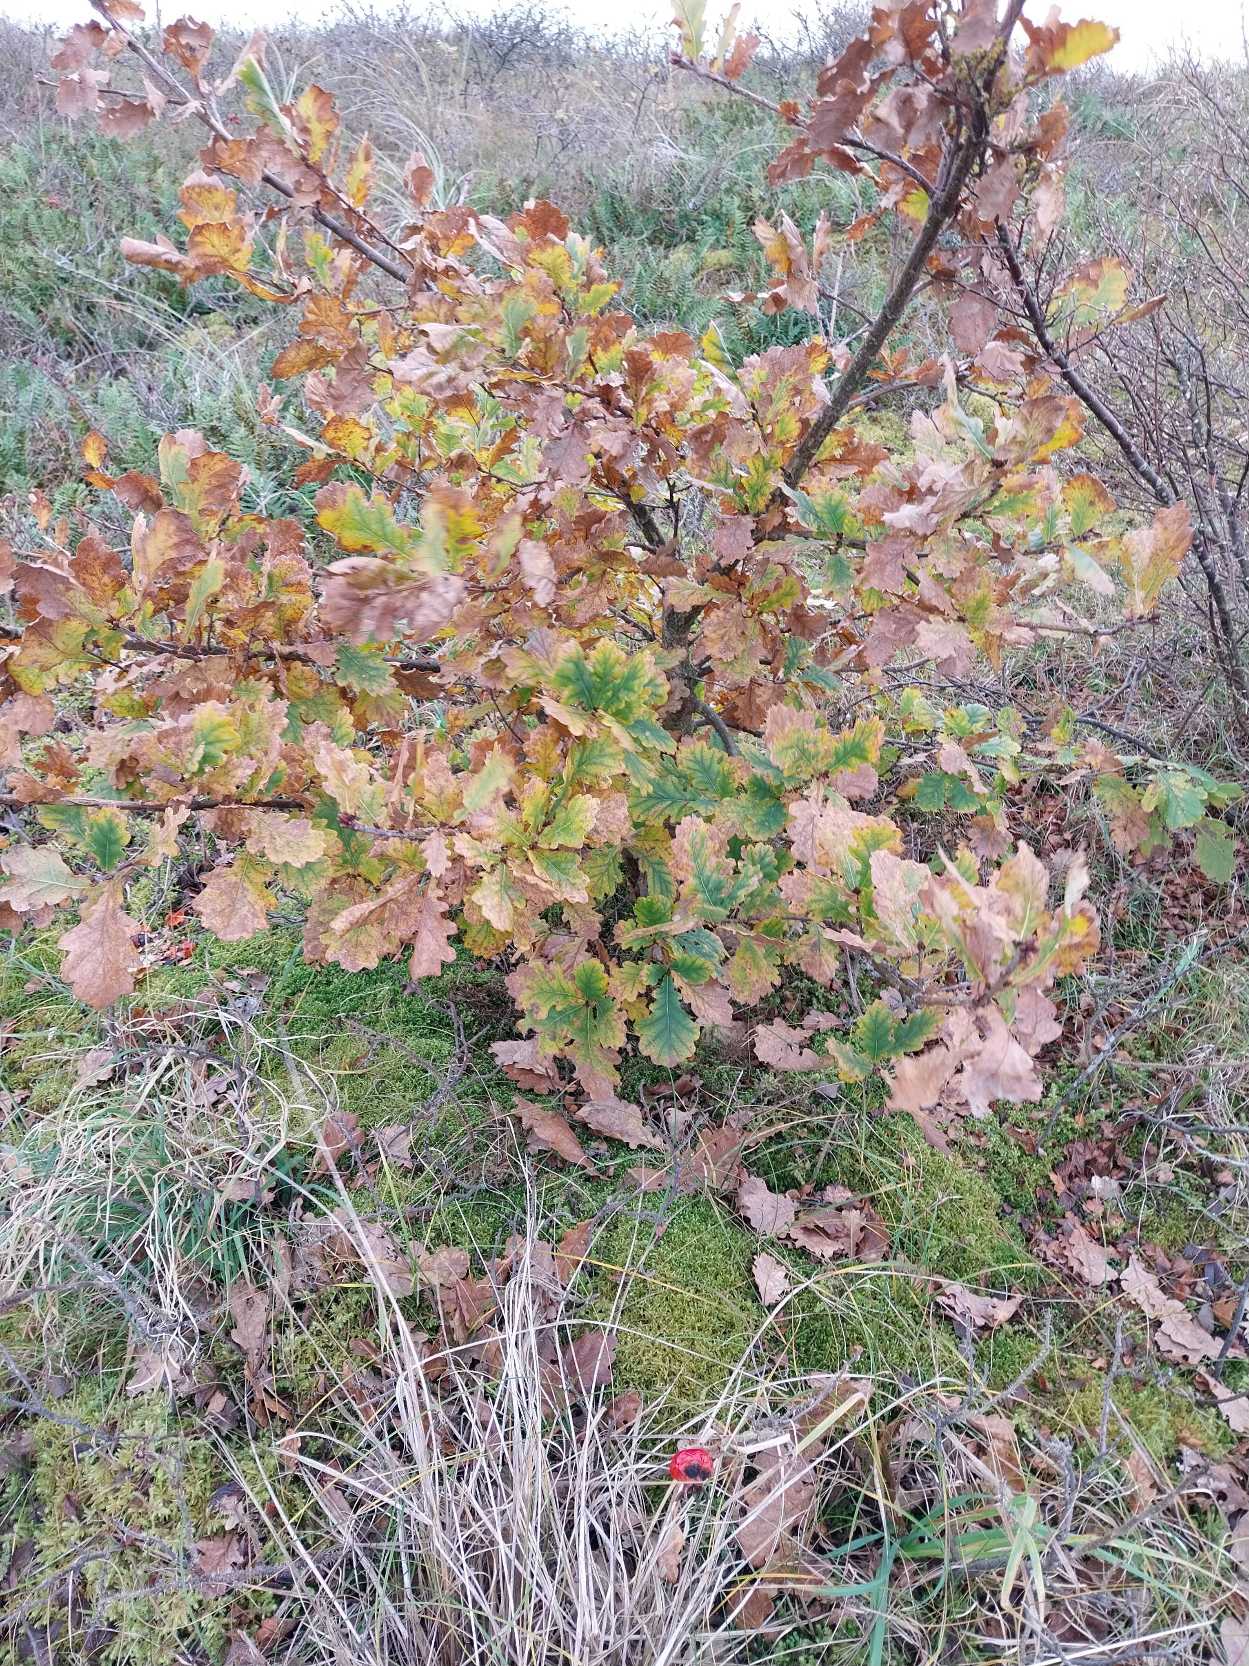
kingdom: Plantae
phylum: Tracheophyta
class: Magnoliopsida
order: Fagales
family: Fagaceae
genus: Quercus
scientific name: Quercus robur
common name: Stilk-eg/almindelig eg
